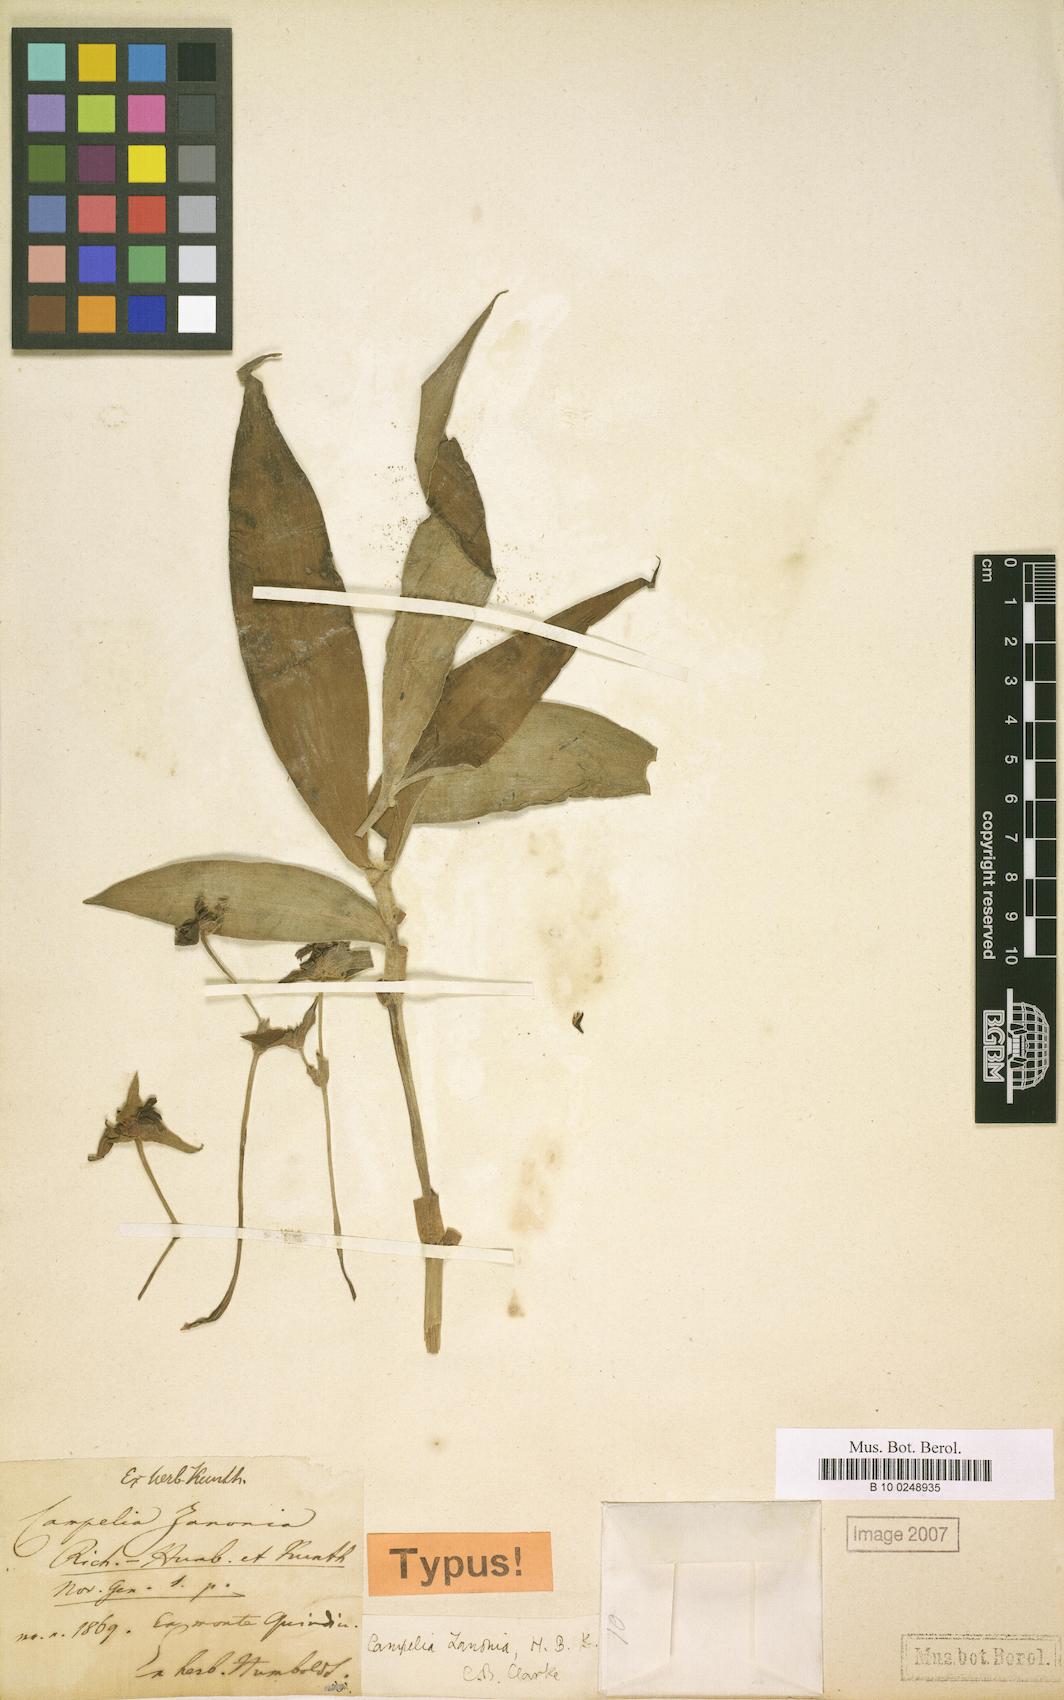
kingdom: Plantae
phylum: Tracheophyta
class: Liliopsida
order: Commelinales
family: Commelinaceae
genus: Tradescantia
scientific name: Tradescantia zanonia
